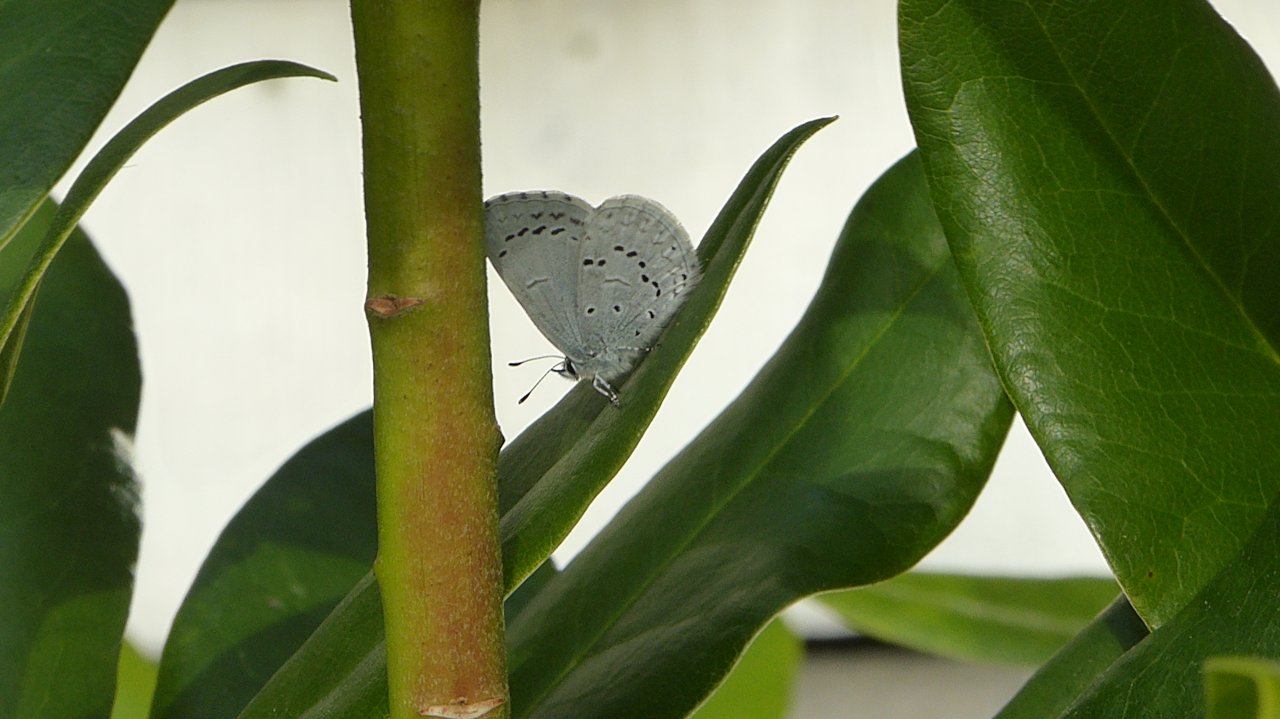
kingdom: Animalia
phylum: Arthropoda
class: Insecta
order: Lepidoptera
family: Lycaenidae
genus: Celastrina
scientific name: Celastrina ladon
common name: Echo Azure
